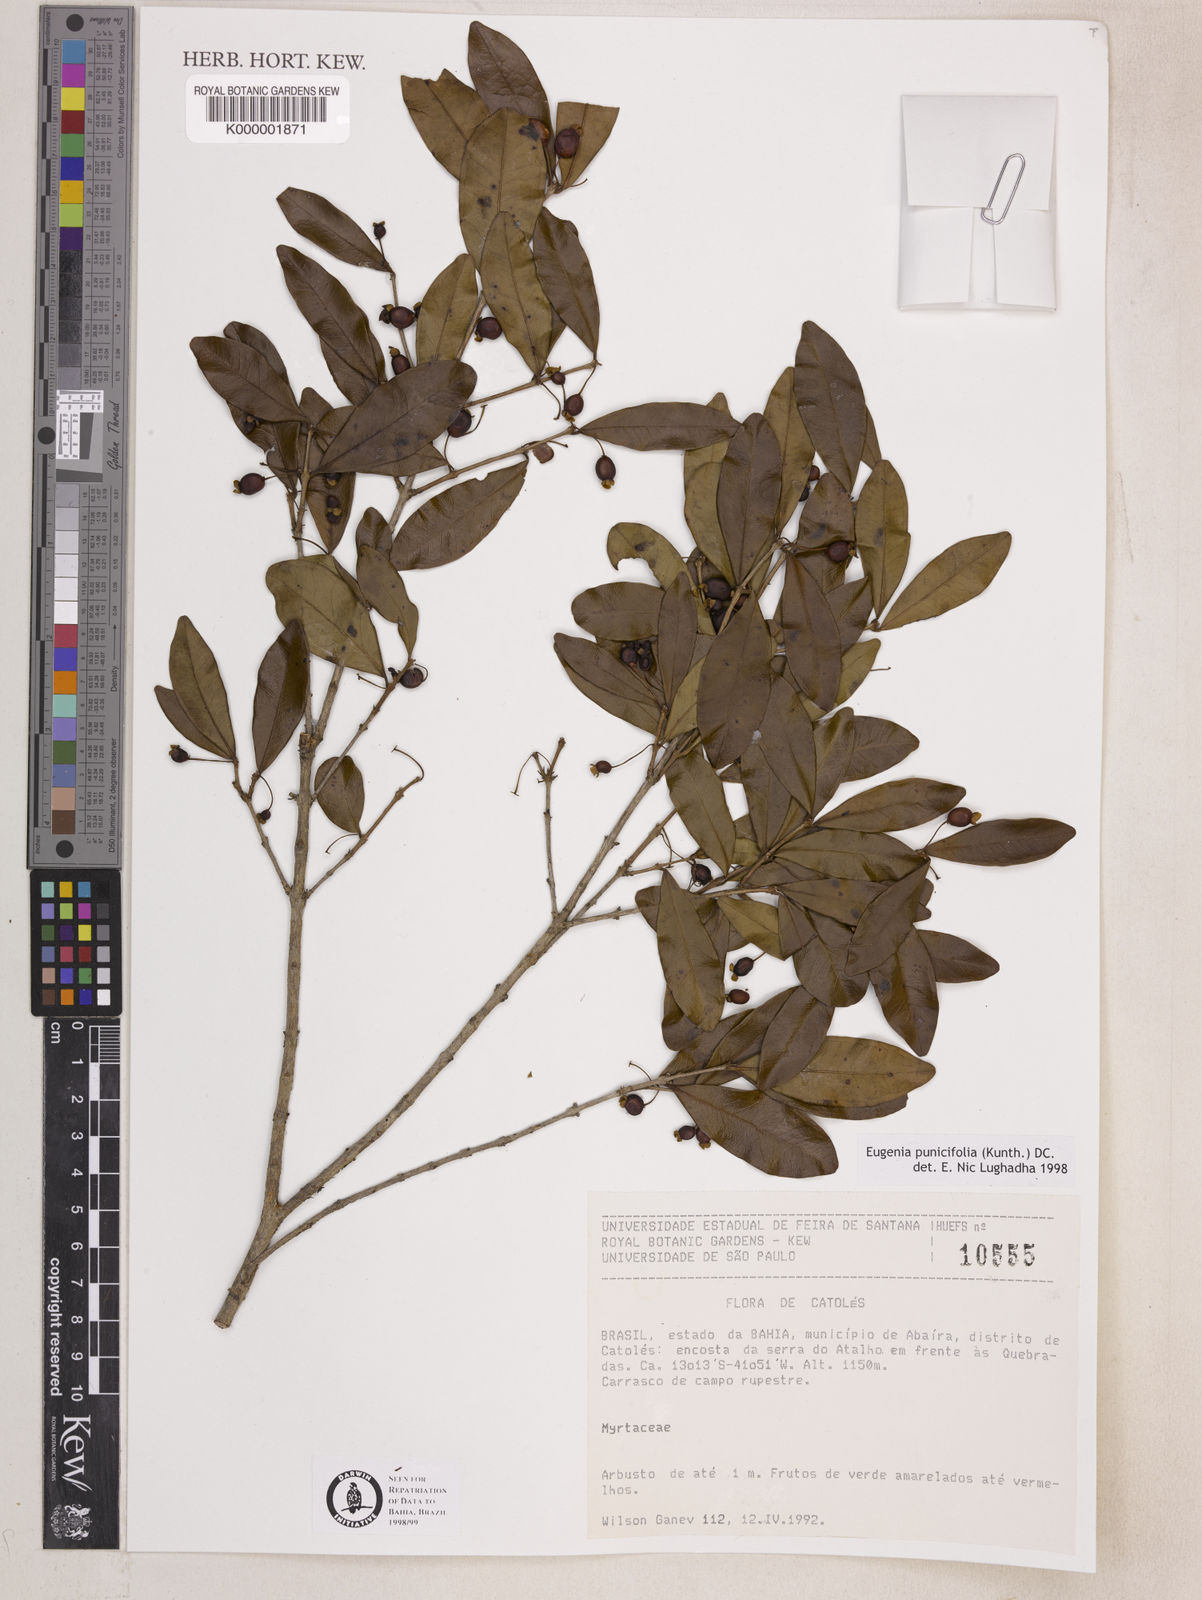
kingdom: Plantae
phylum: Tracheophyta
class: Magnoliopsida
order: Myrtales
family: Myrtaceae
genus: Eugenia
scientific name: Eugenia punicifolia
